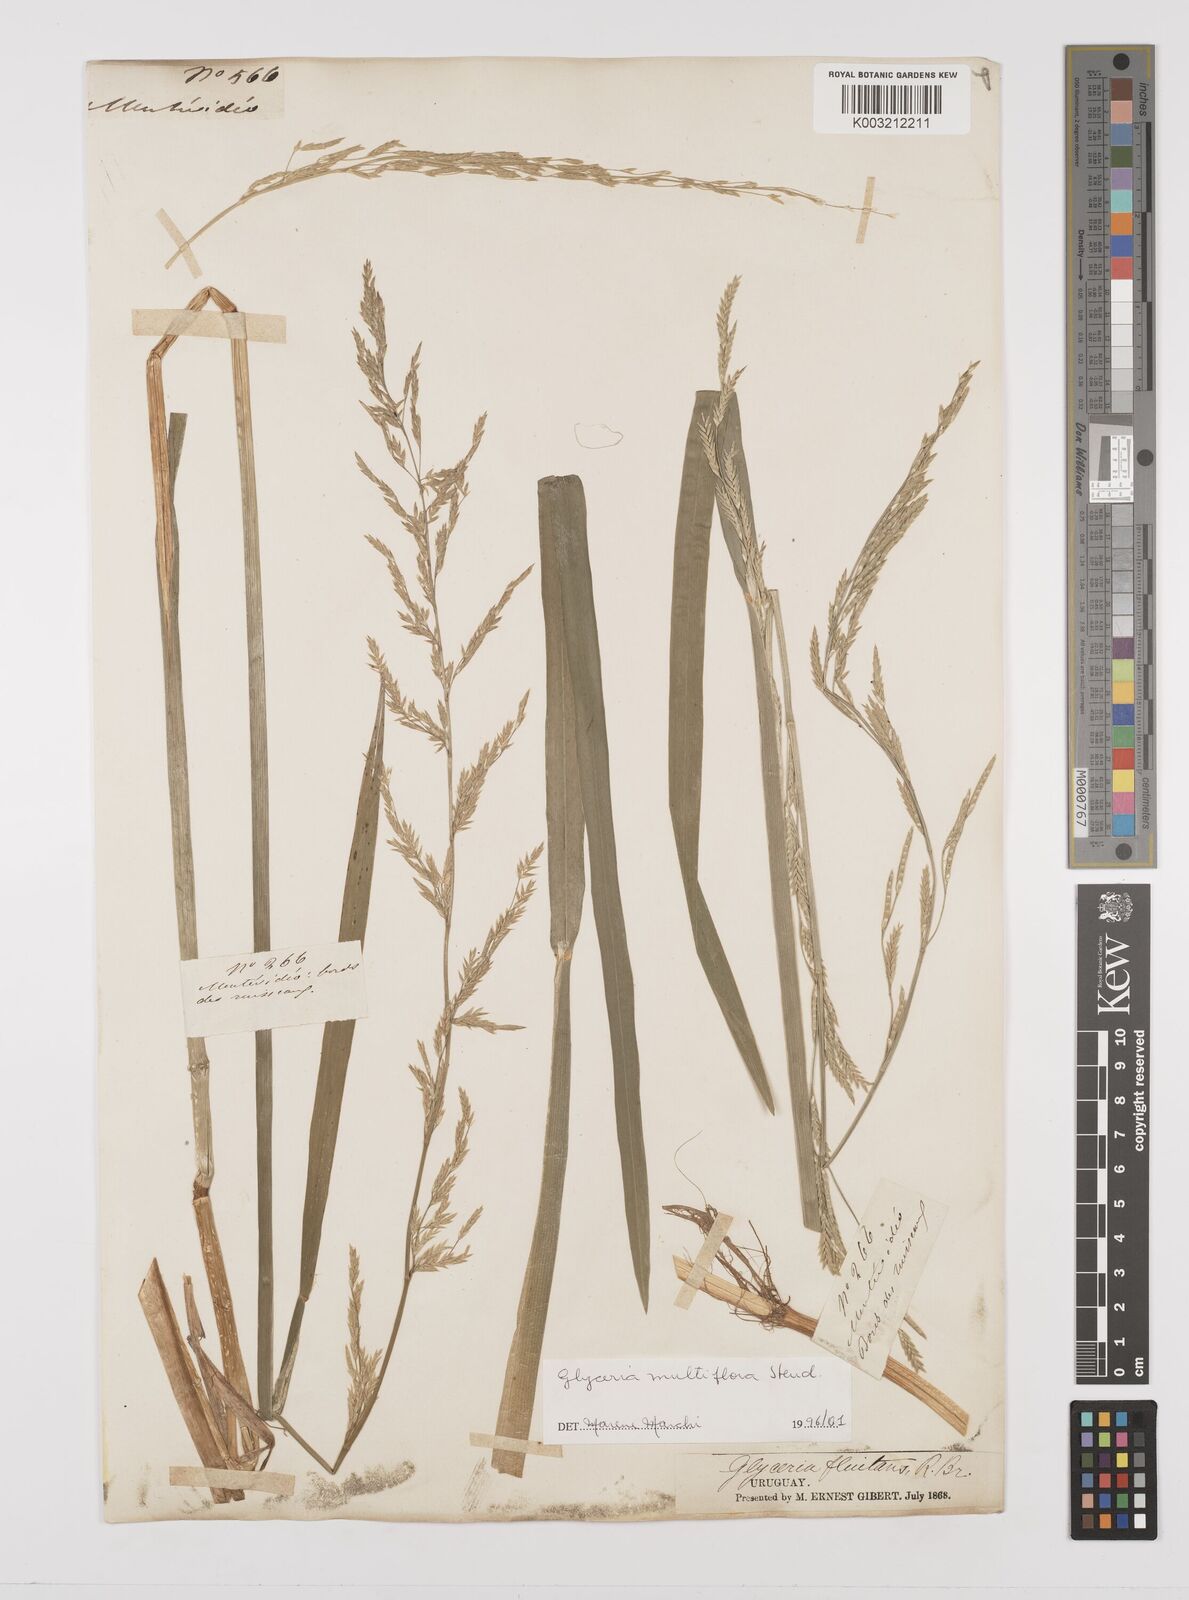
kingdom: Plantae
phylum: Tracheophyta
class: Liliopsida
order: Poales
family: Poaceae
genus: Glyceria
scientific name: Glyceria multiflora
